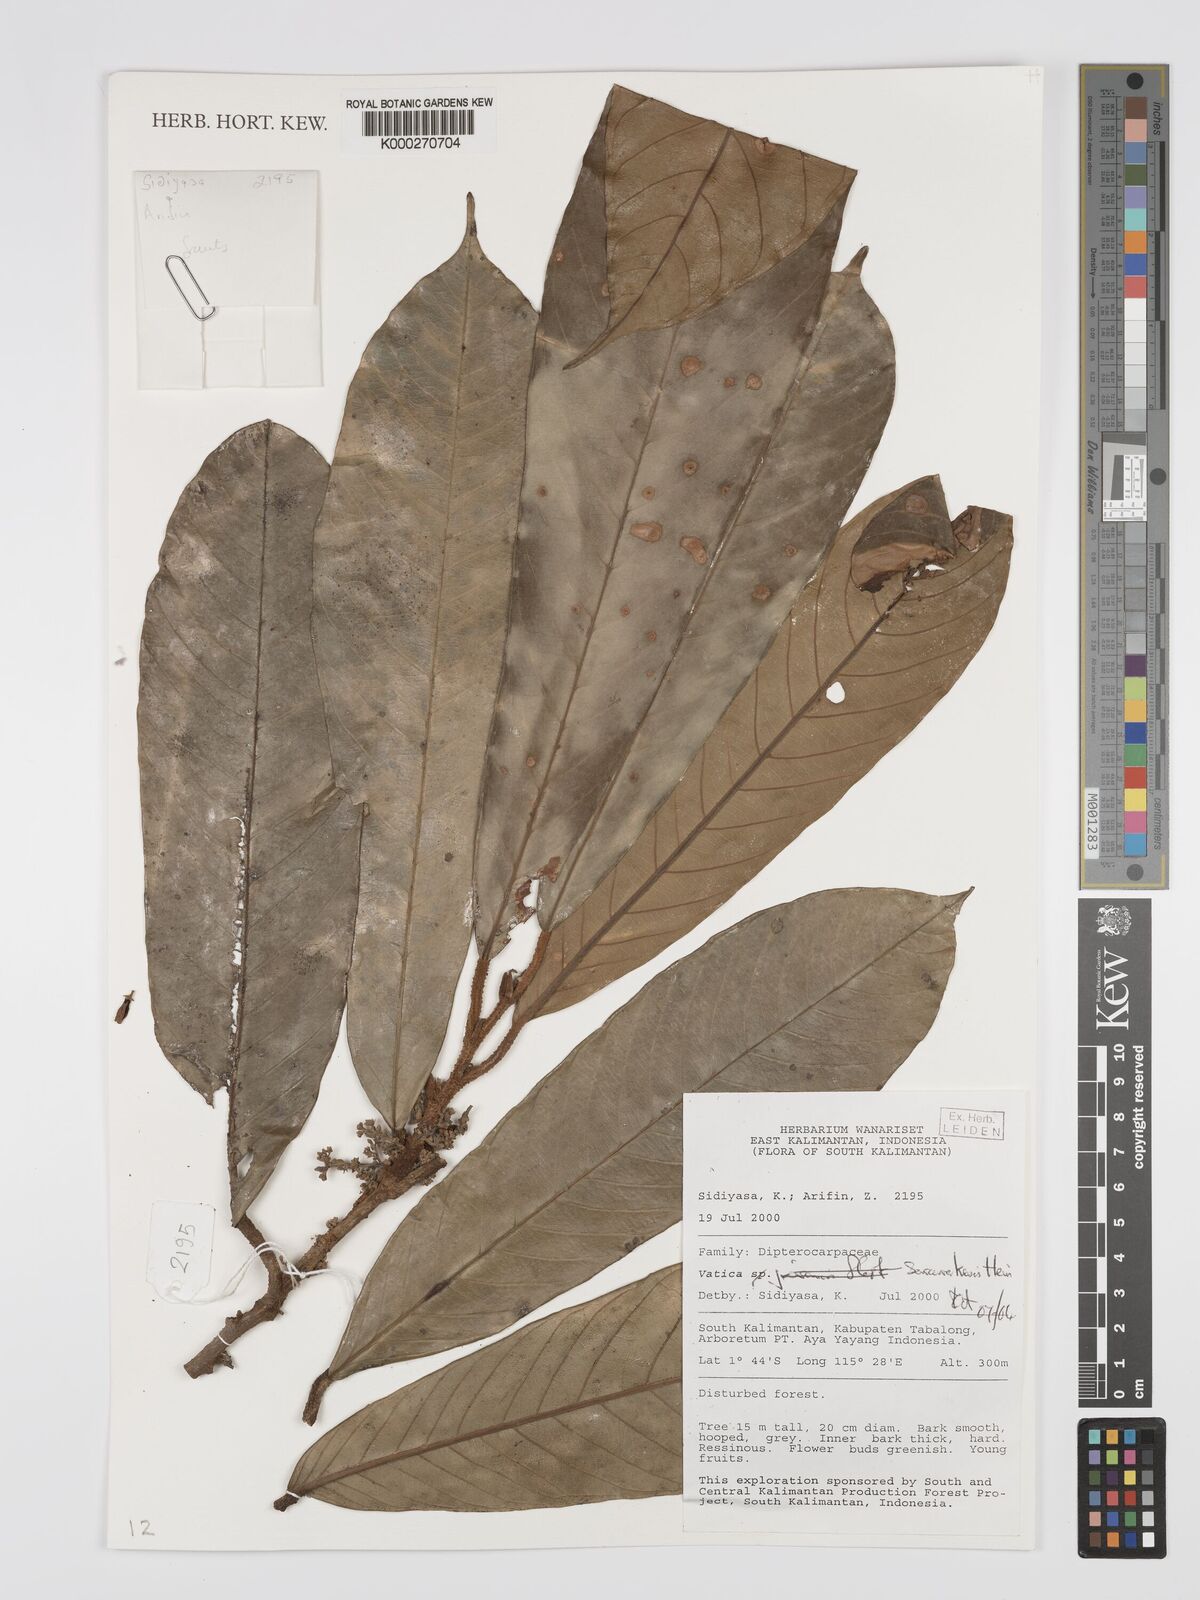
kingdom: Plantae
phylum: Tracheophyta
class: Magnoliopsida
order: Malvales
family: Dipterocarpaceae
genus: Vatica
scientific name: Vatica sarawakensis
